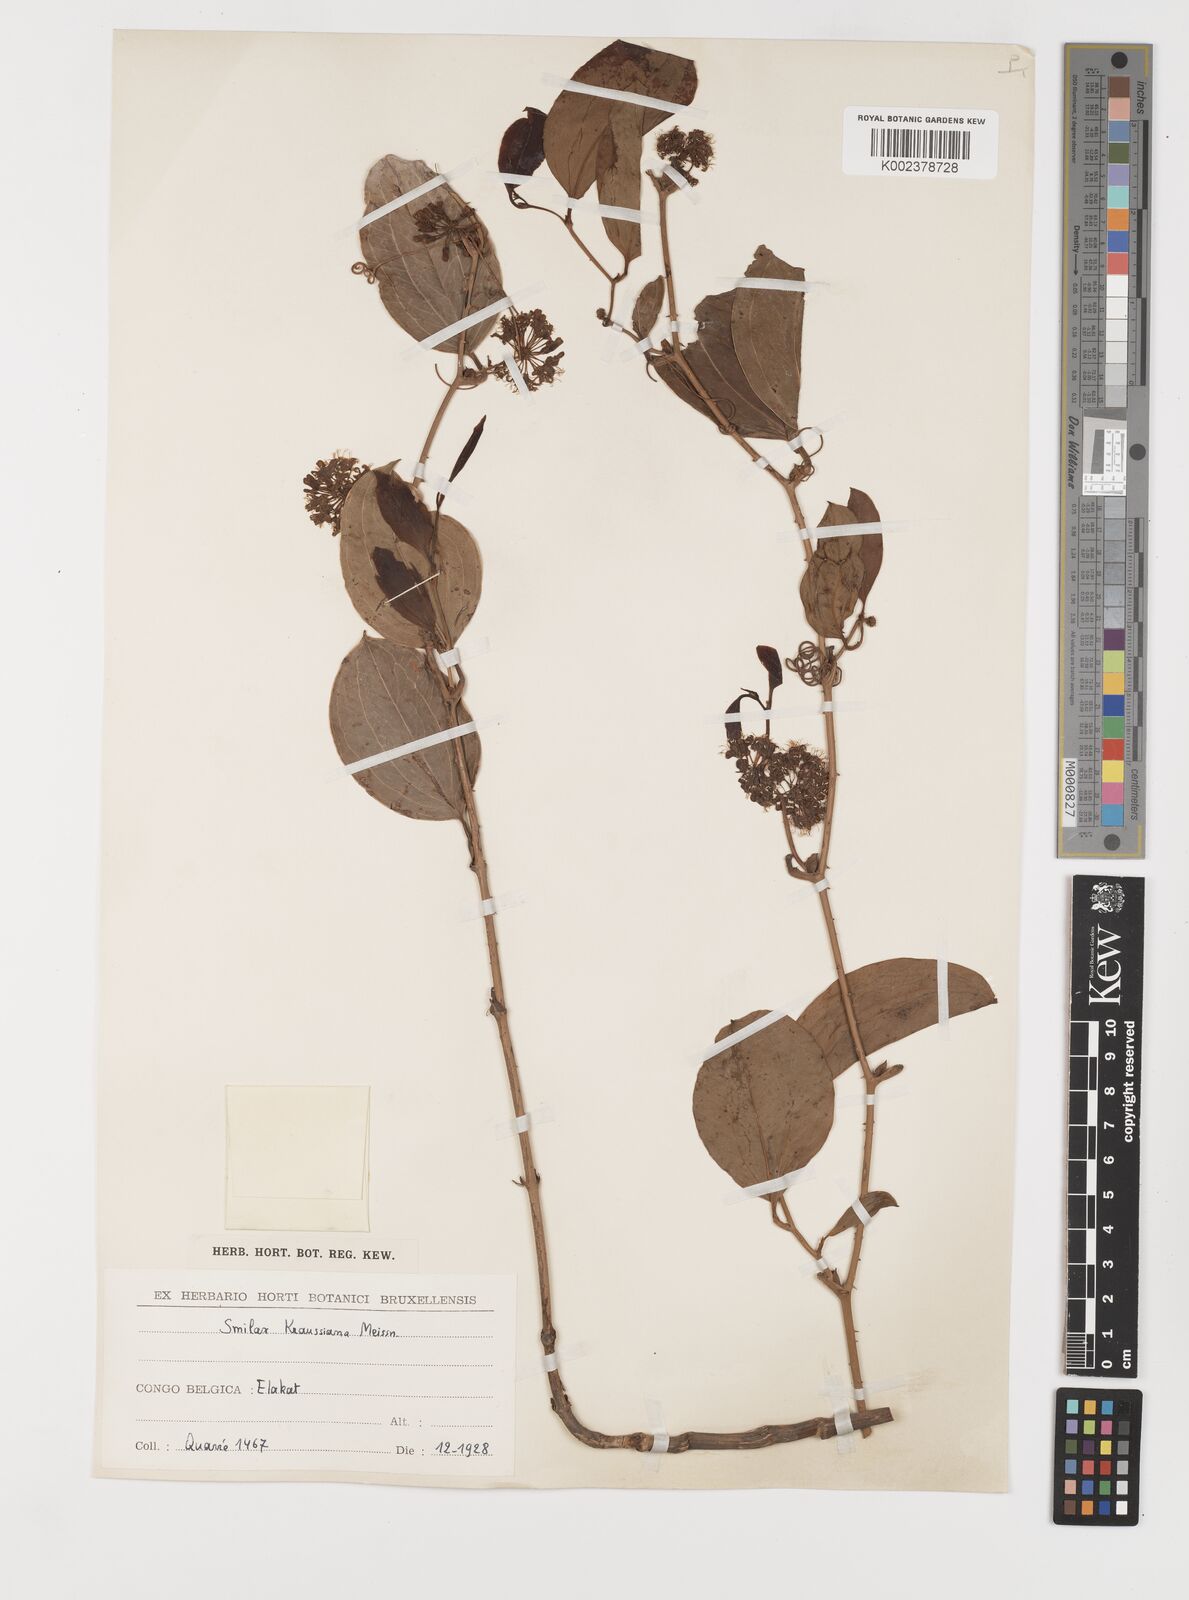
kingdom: Plantae
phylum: Tracheophyta
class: Liliopsida
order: Liliales
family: Smilacaceae
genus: Smilax
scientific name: Smilax anceps
